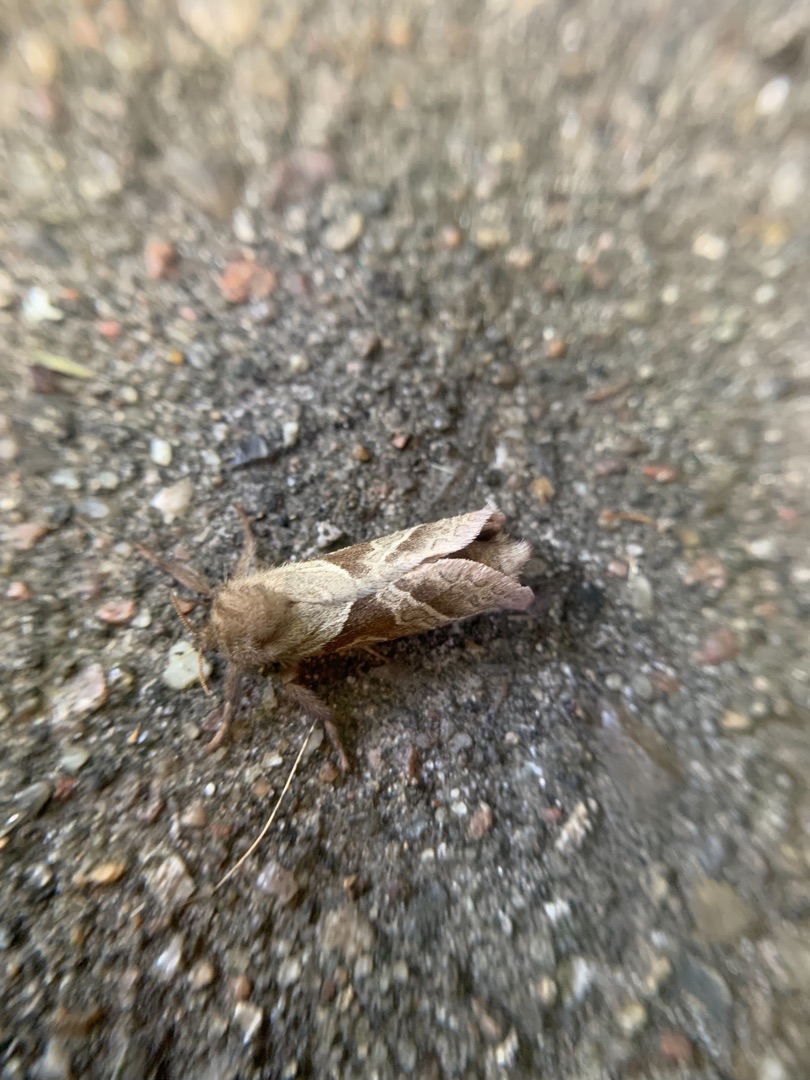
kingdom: Animalia
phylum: Arthropoda
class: Insecta
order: Lepidoptera
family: Hepialidae
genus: Triodia
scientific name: Triodia sylvina
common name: Skræpperodæder
